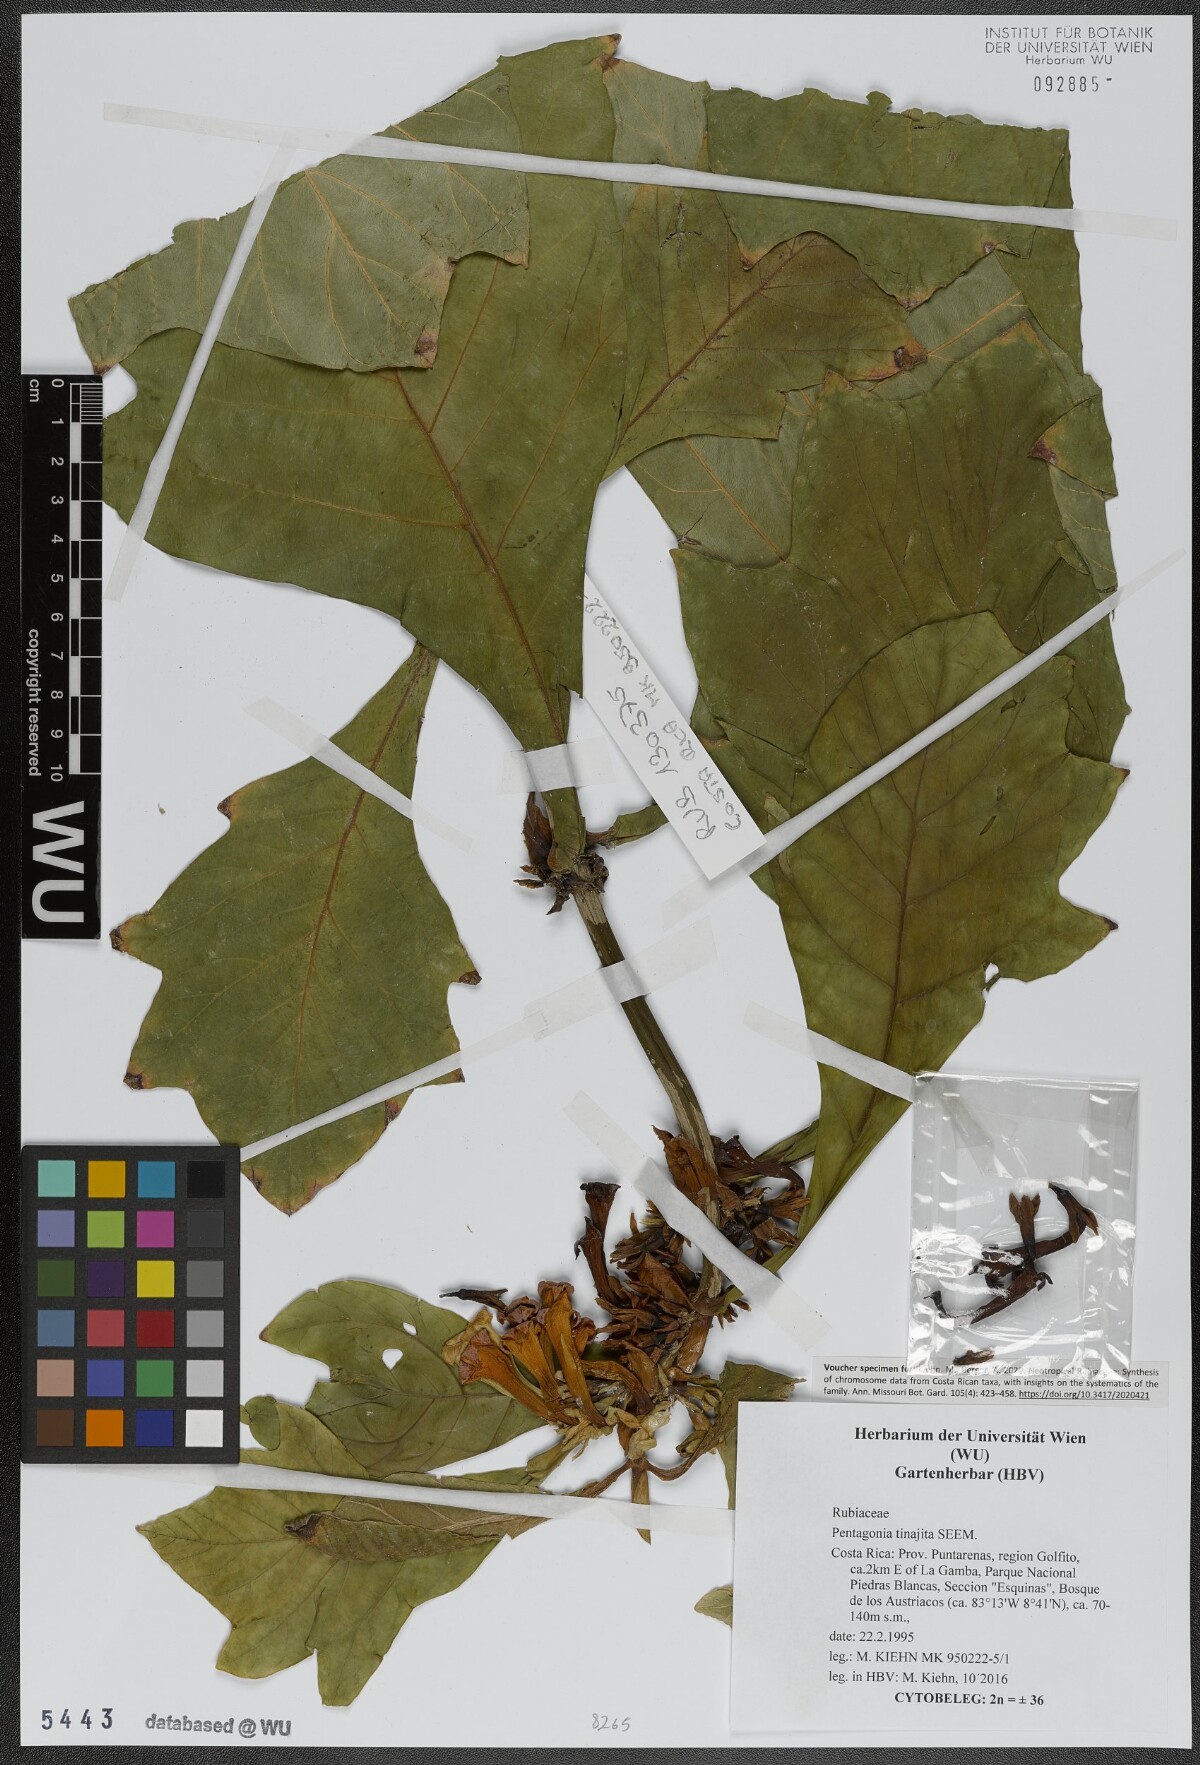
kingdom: Plantae
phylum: Tracheophyta
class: Magnoliopsida
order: Gentianales
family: Rubiaceae
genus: Pentagonia
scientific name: Pentagonia tinajita
